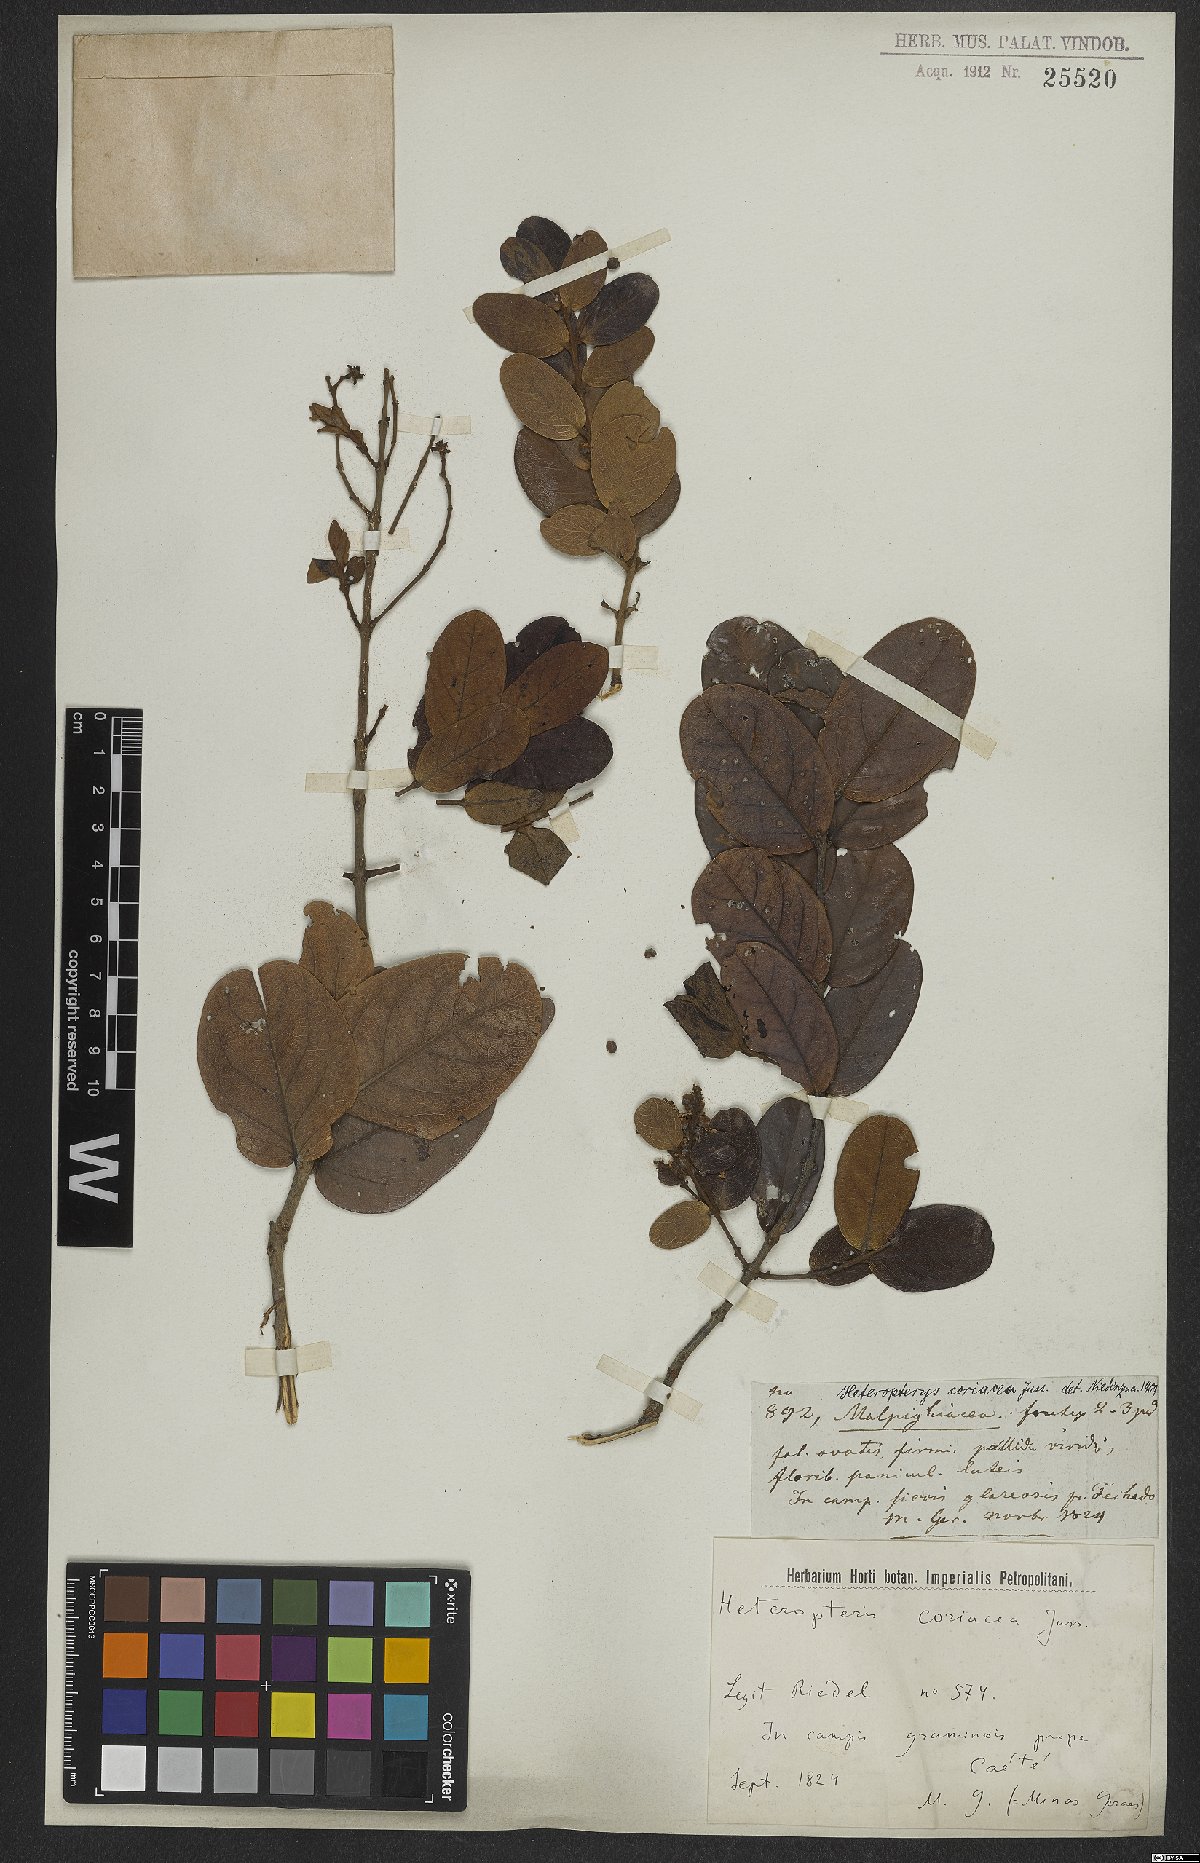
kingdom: Plantae
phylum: Tracheophyta
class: Magnoliopsida
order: Malpighiales
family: Malpighiaceae
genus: Heteropterys
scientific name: Heteropterys coriacea
